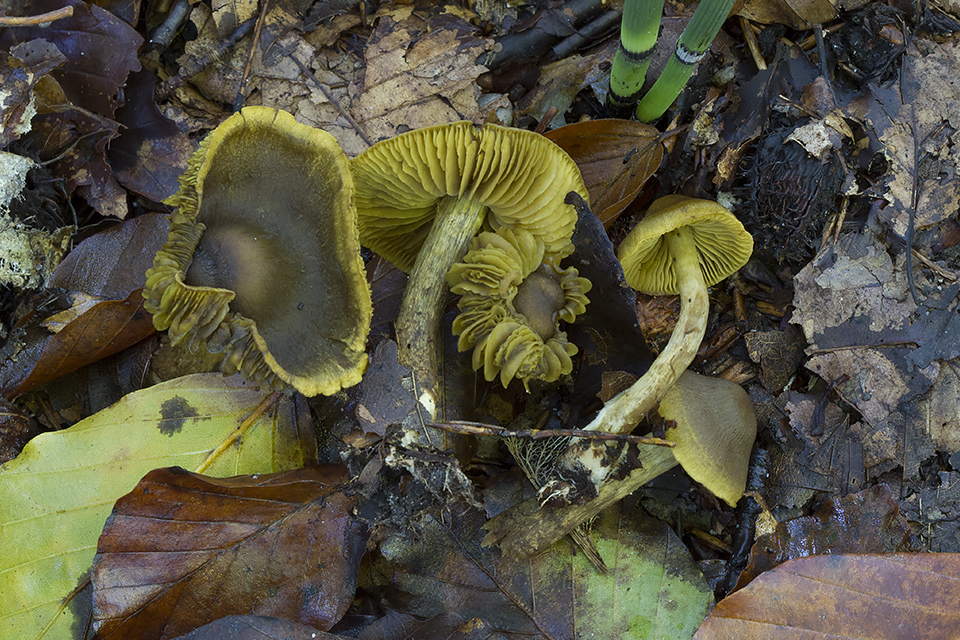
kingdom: Fungi
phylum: Basidiomycota
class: Agaricomycetes
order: Agaricales
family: Cortinariaceae
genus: Cortinarius
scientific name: Cortinarius olivaceofuscus
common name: olivenbrun slørhat
